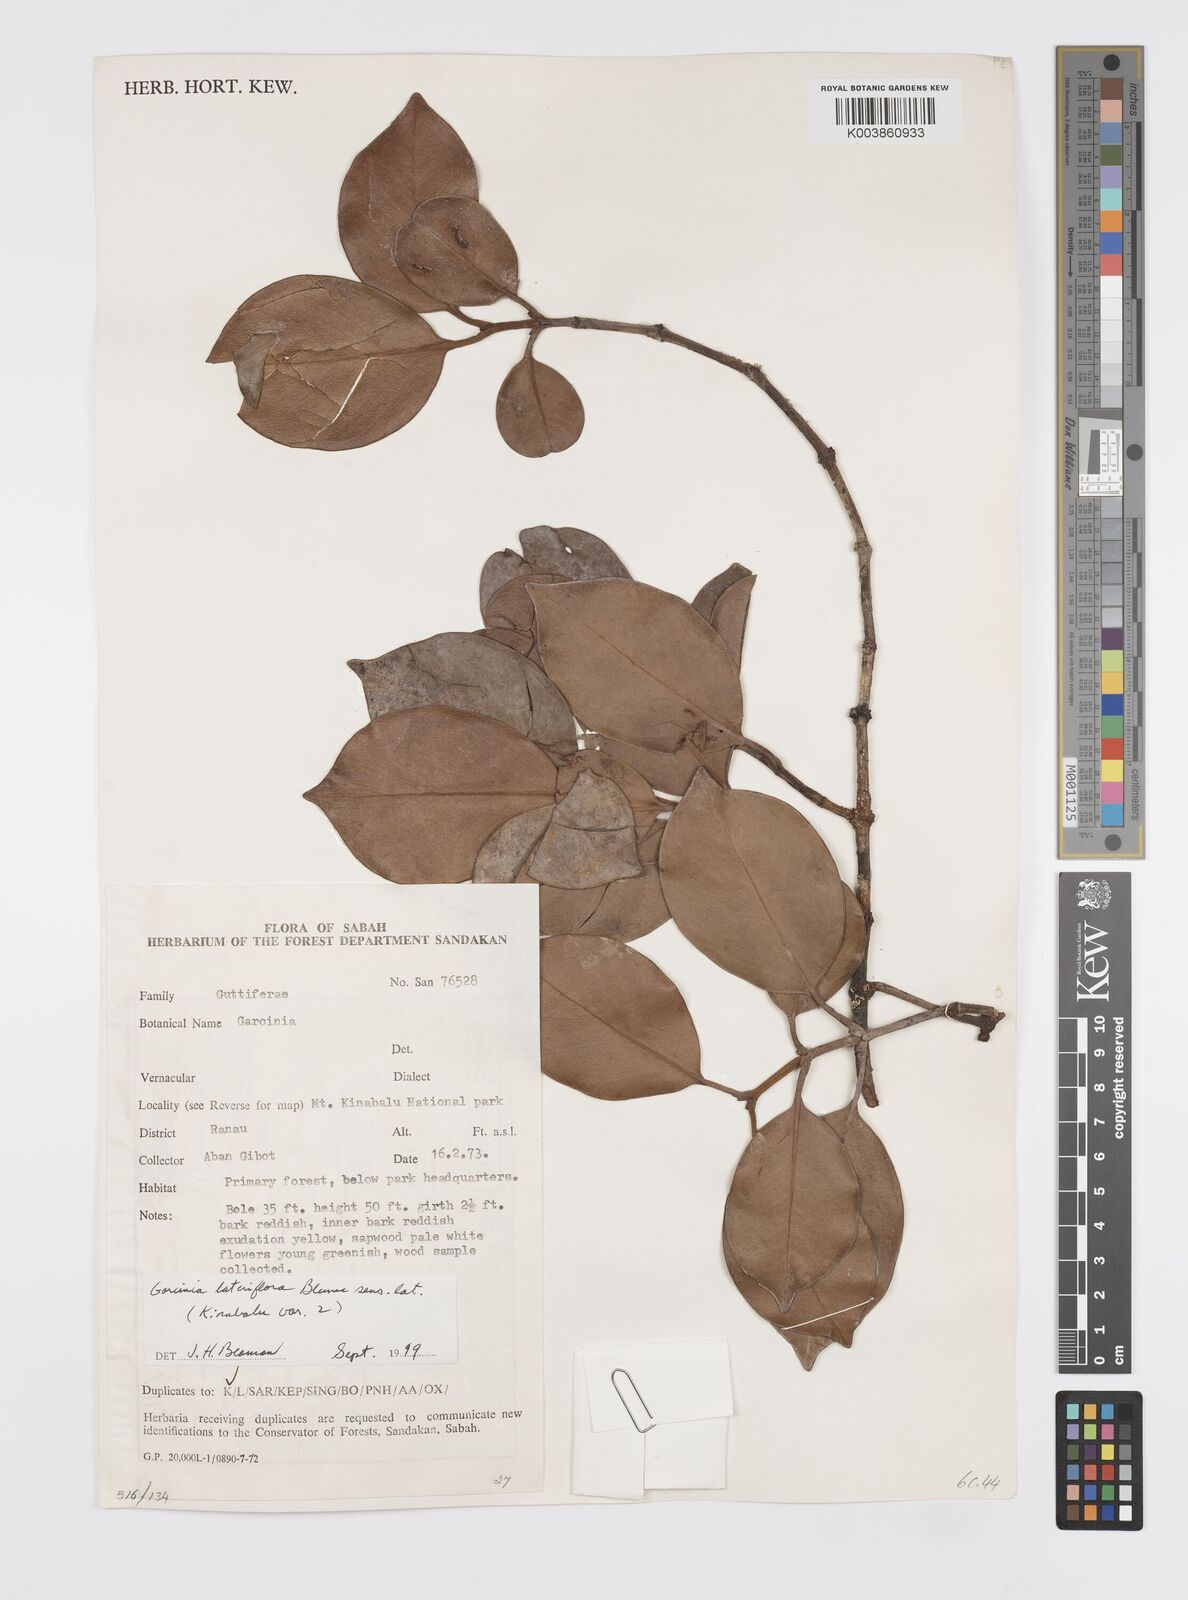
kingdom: Plantae
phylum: Tracheophyta
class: Magnoliopsida
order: Malpighiales
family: Clusiaceae
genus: Garcinia
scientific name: Garcinia lateriflora
